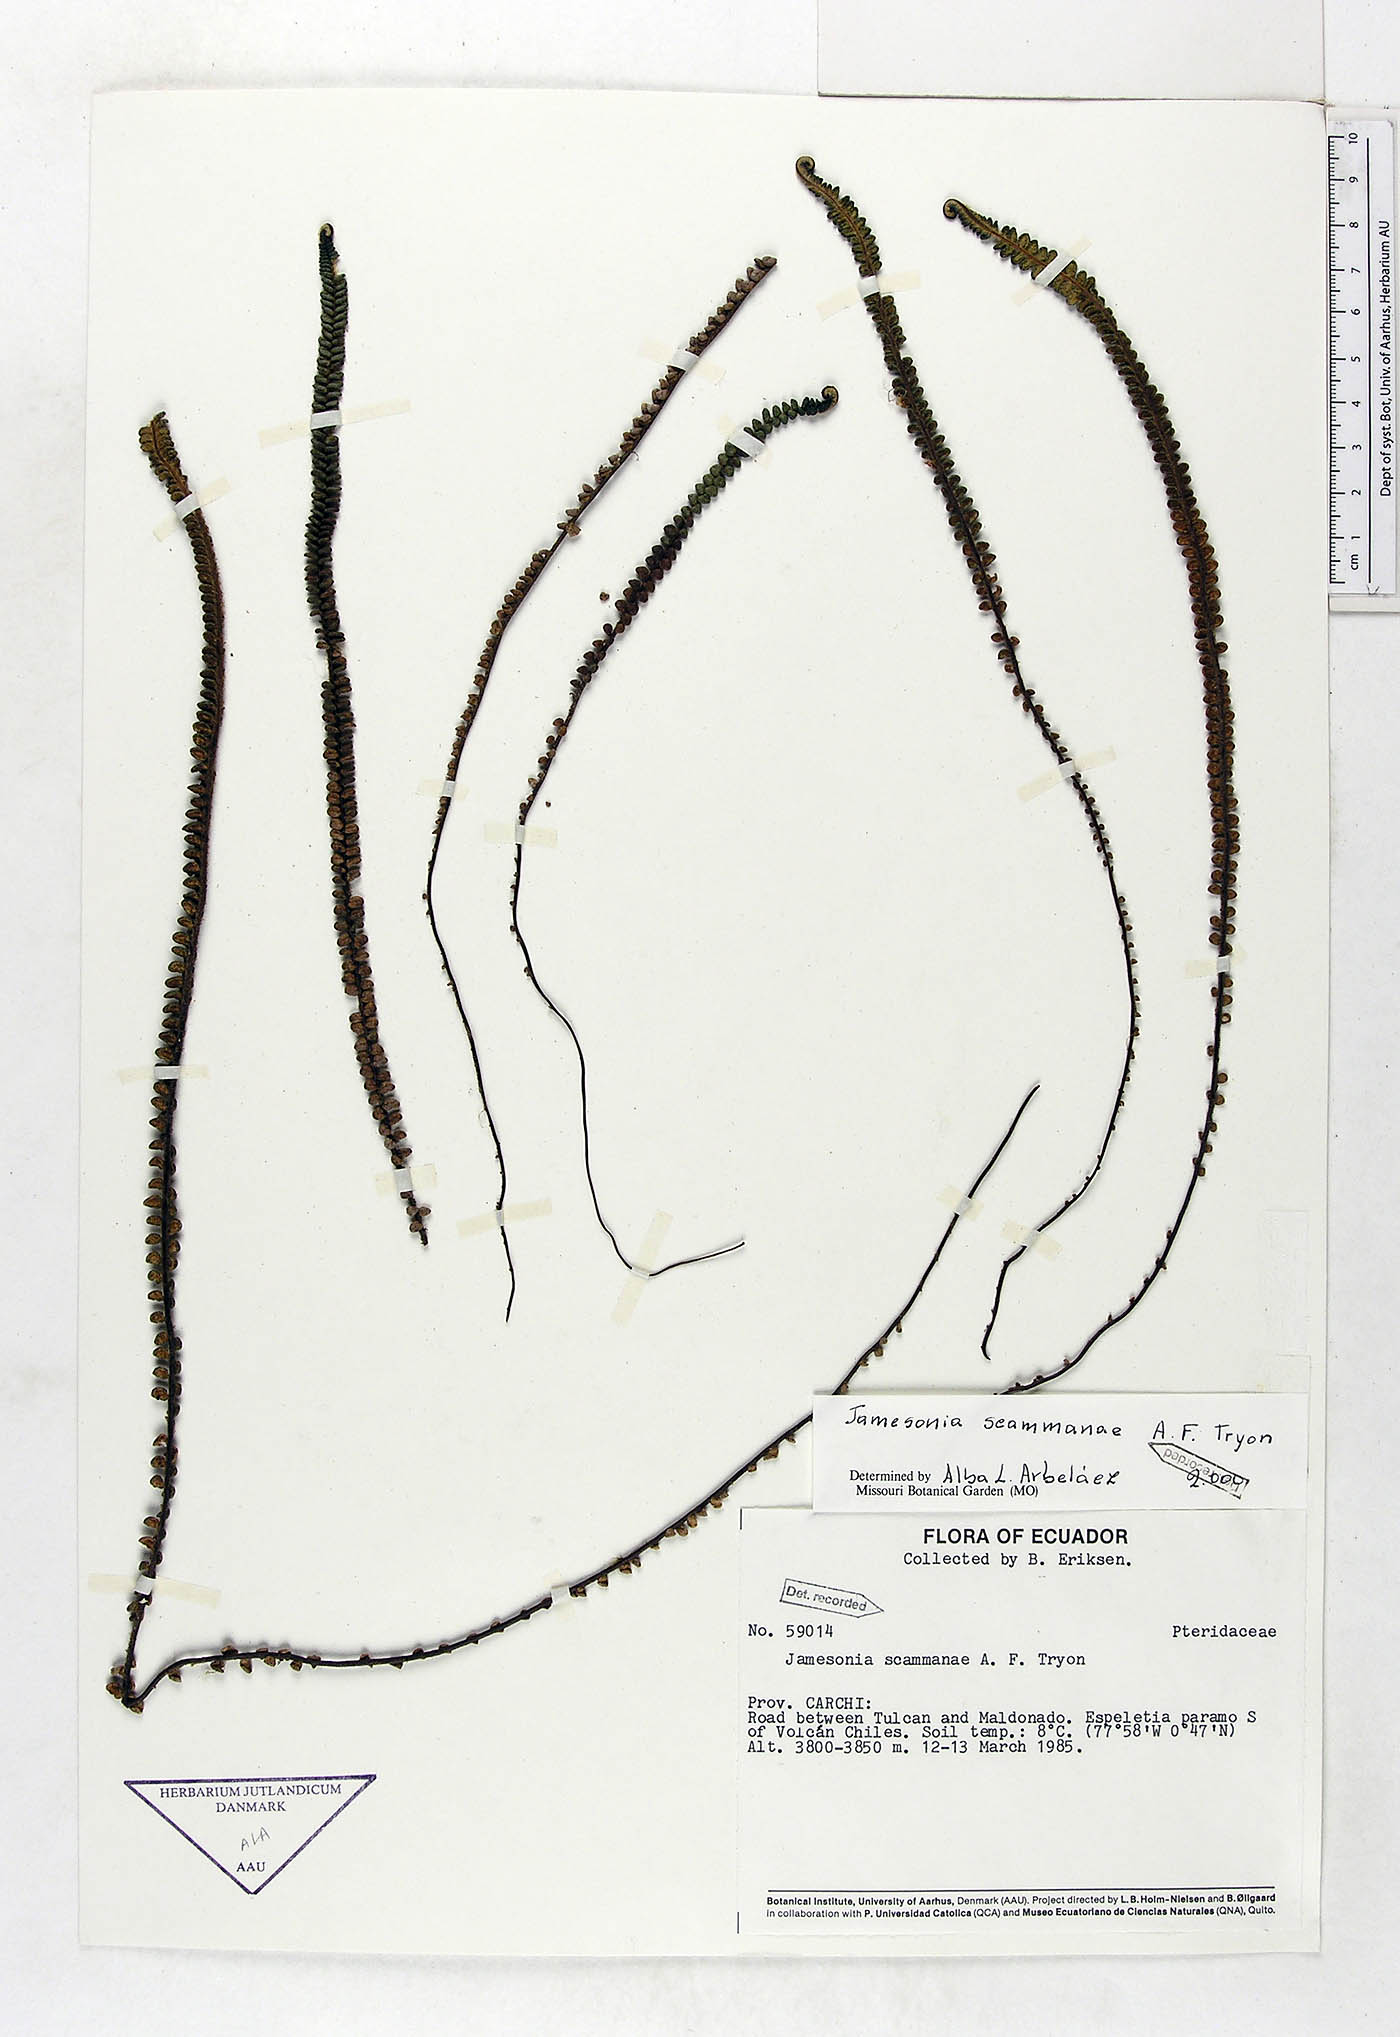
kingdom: Plantae
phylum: Tracheophyta
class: Polypodiopsida
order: Polypodiales
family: Pteridaceae
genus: Jamesonia
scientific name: Jamesonia scammanae
